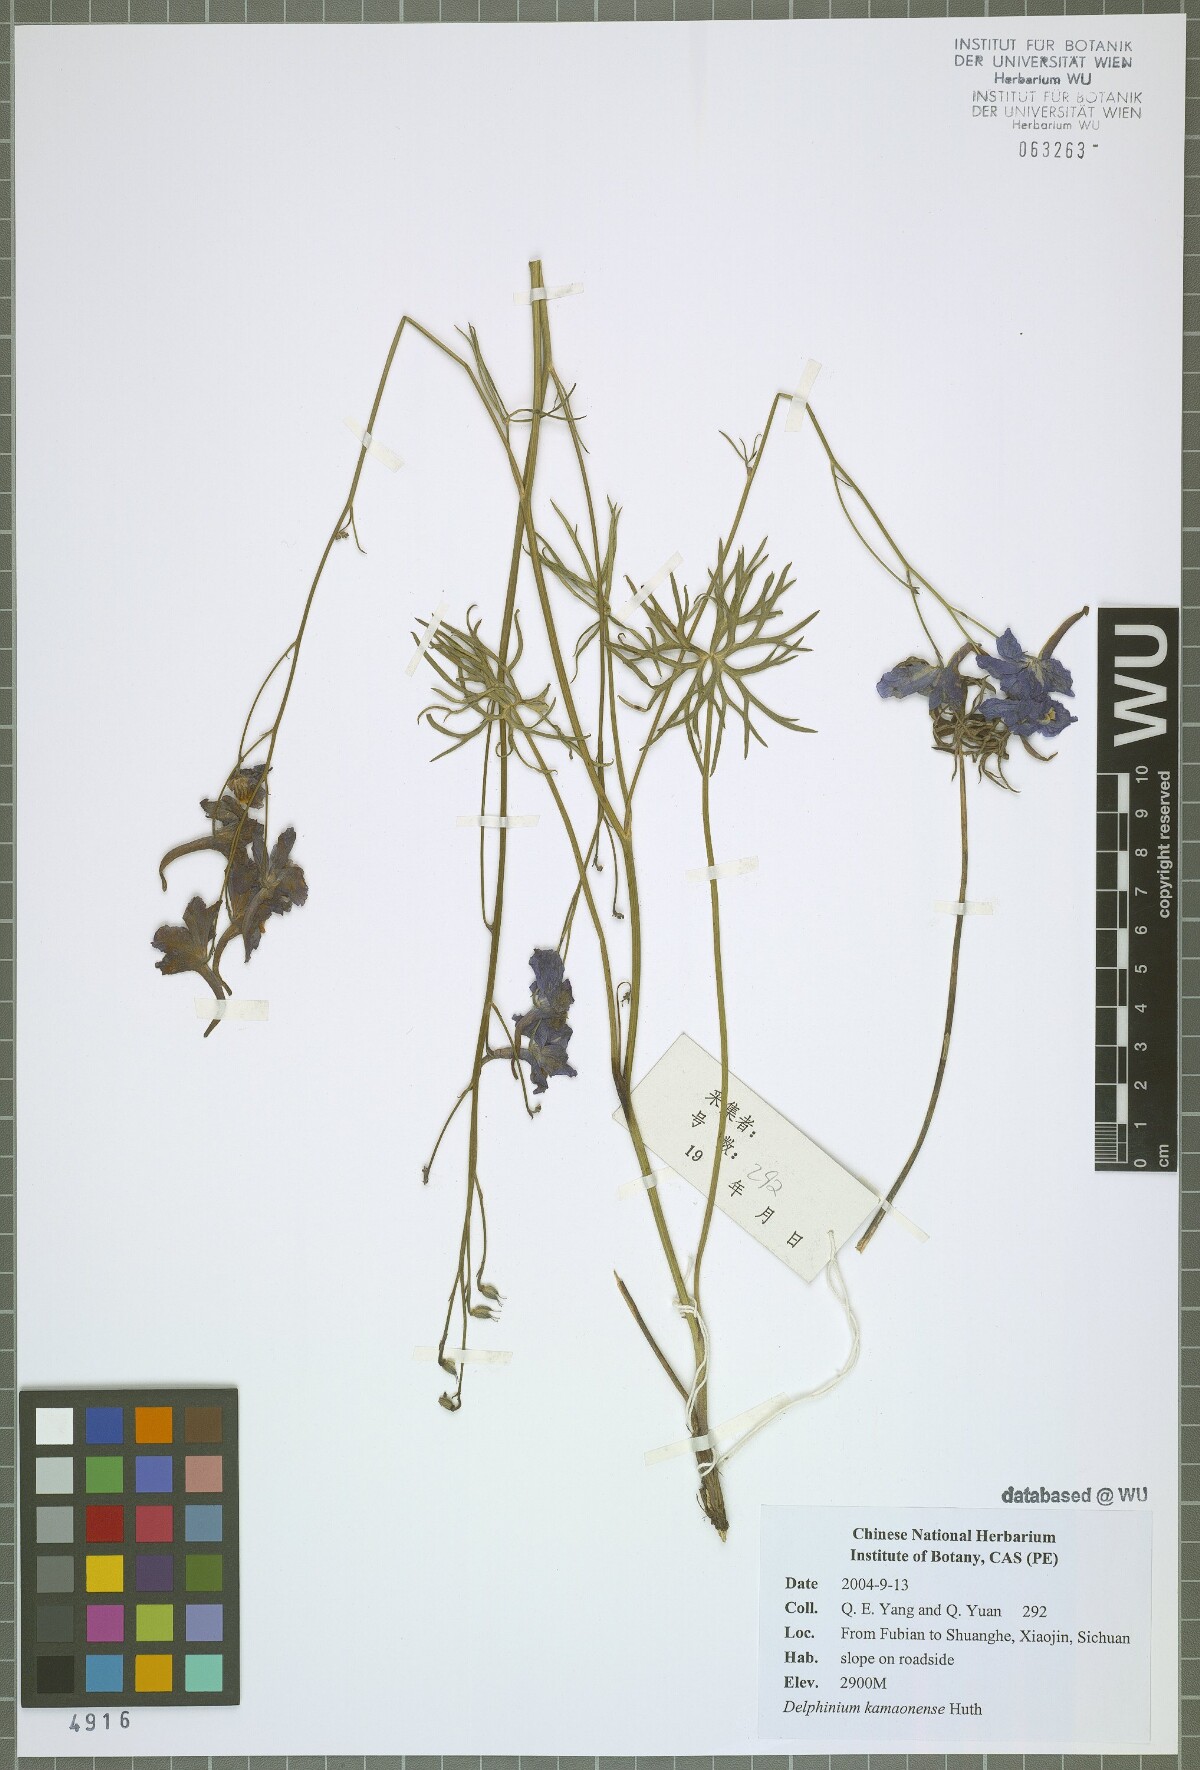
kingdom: Plantae
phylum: Tracheophyta
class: Magnoliopsida
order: Ranunculales
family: Ranunculaceae
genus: Delphinium
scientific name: Delphinium kamaonense
